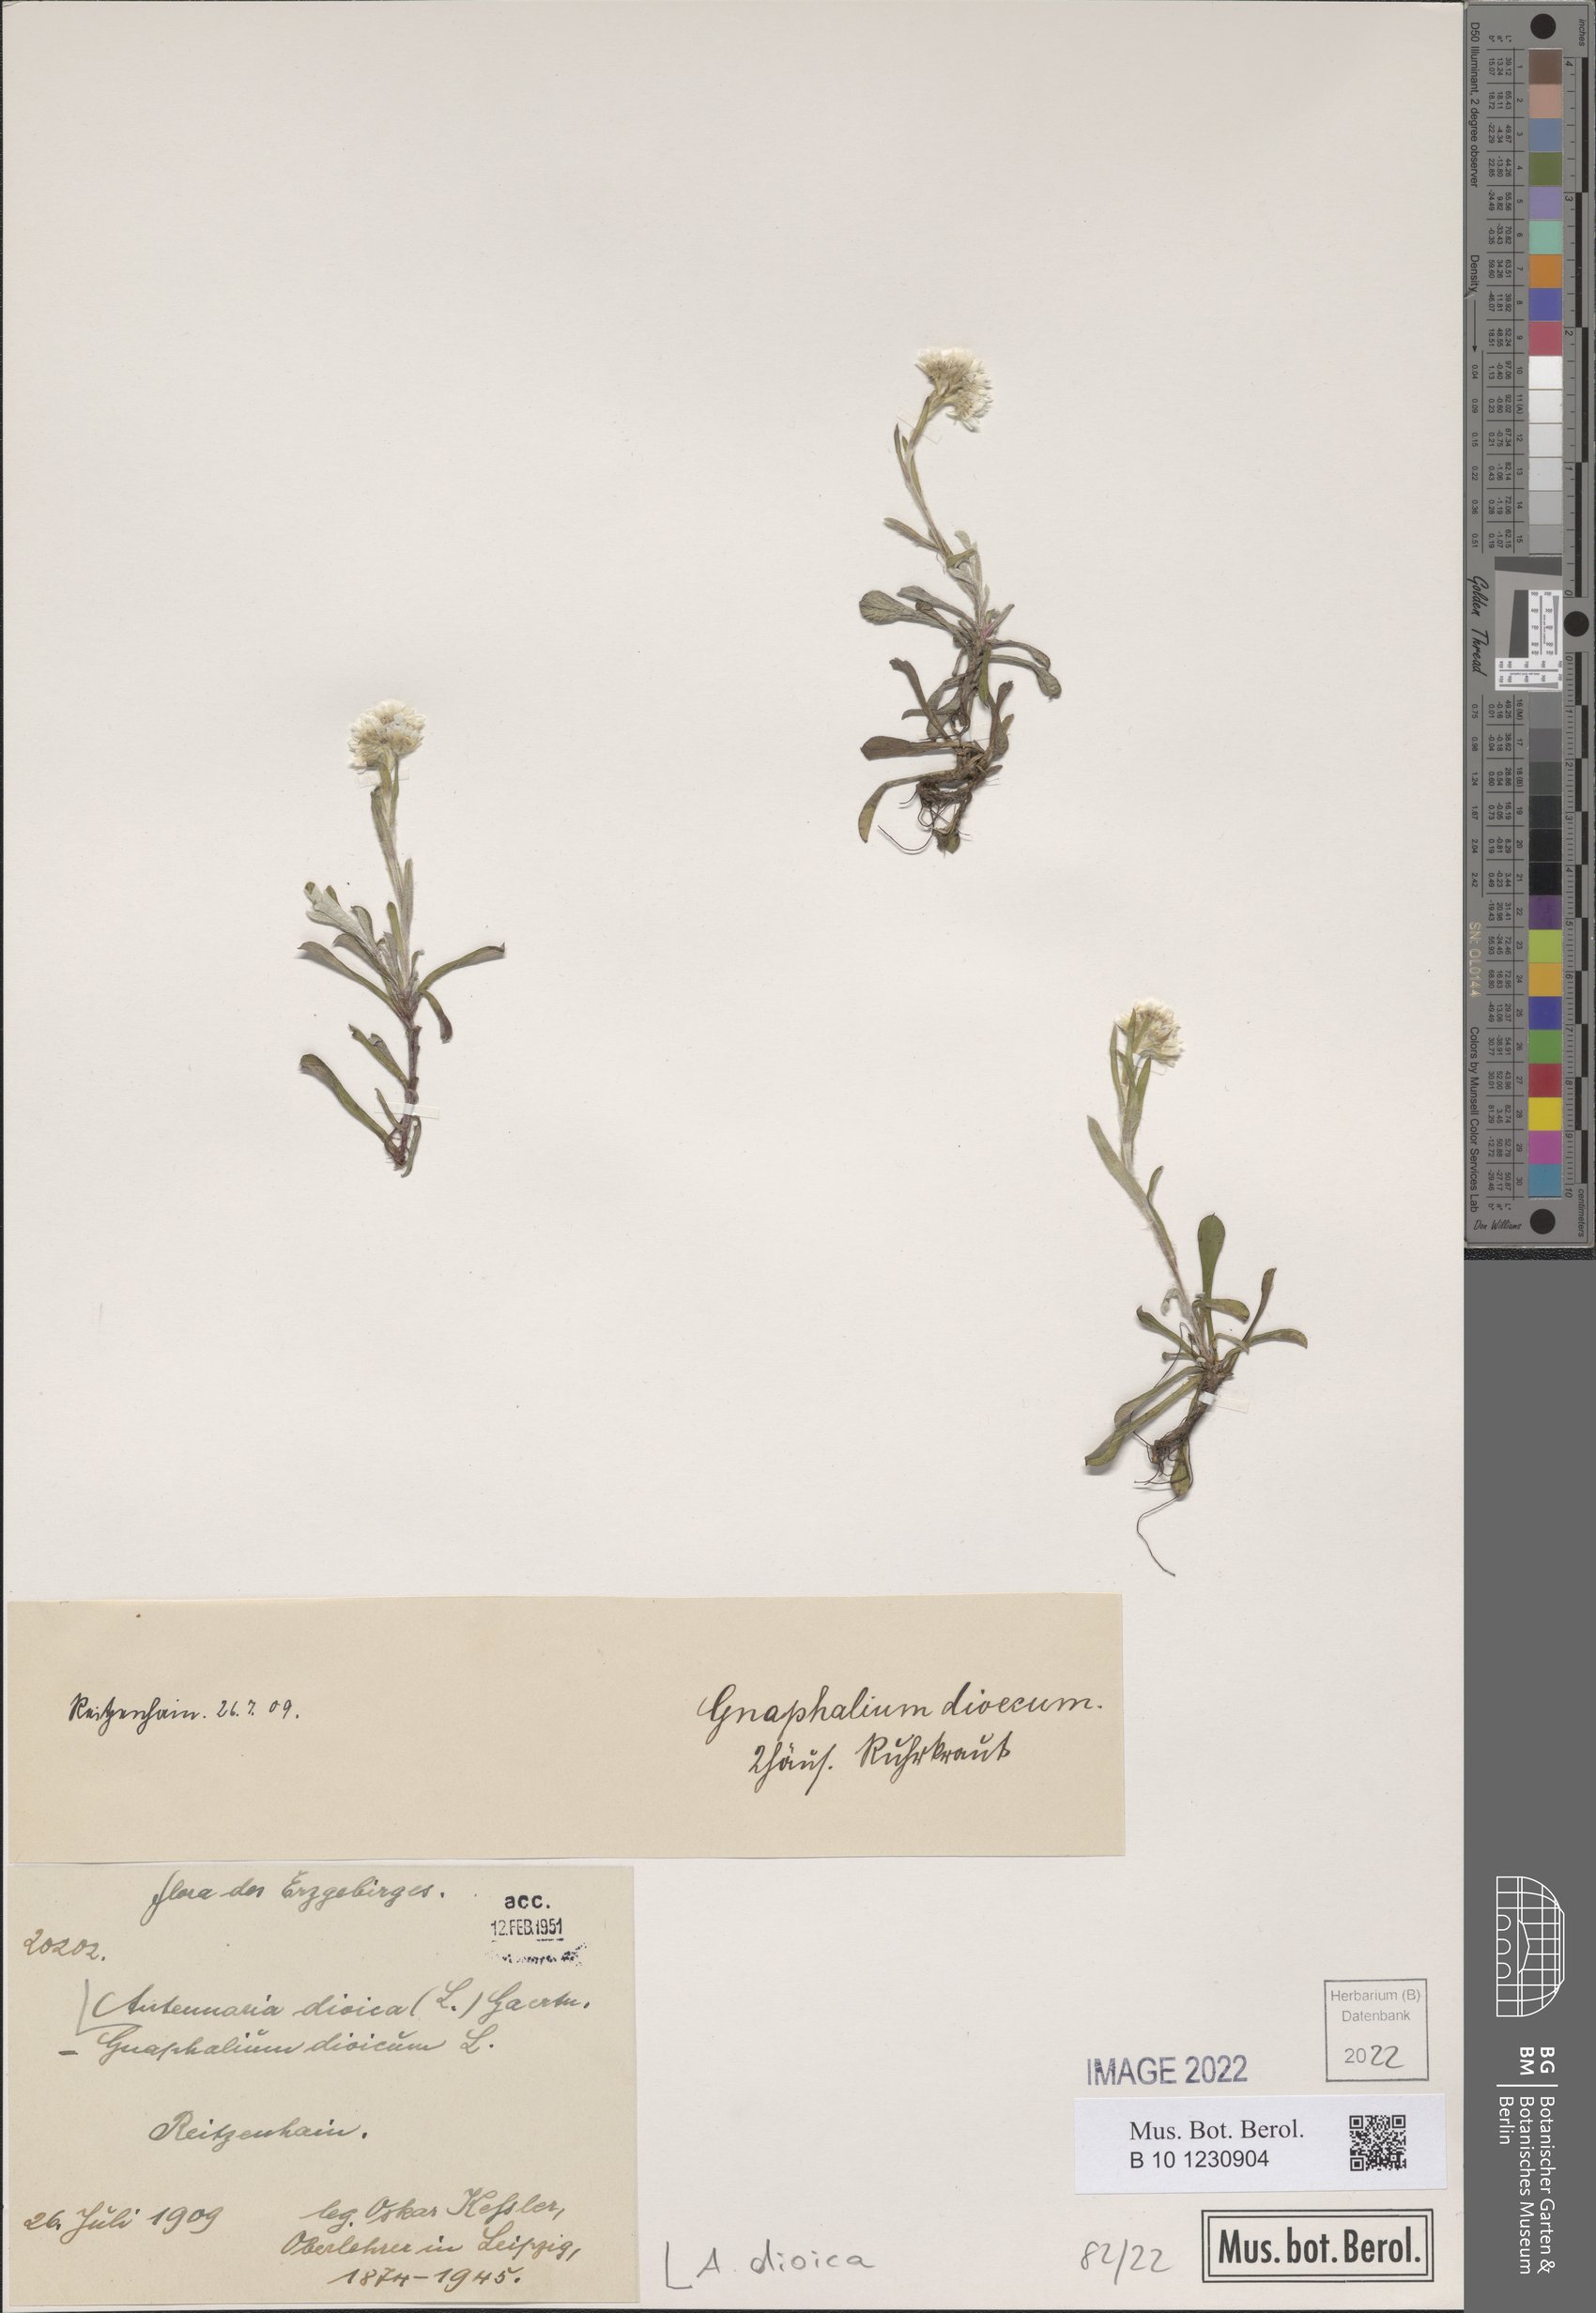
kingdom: Plantae
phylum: Tracheophyta
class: Magnoliopsida
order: Asterales
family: Asteraceae
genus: Antennaria
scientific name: Antennaria dioica
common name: Mountain everlasting
